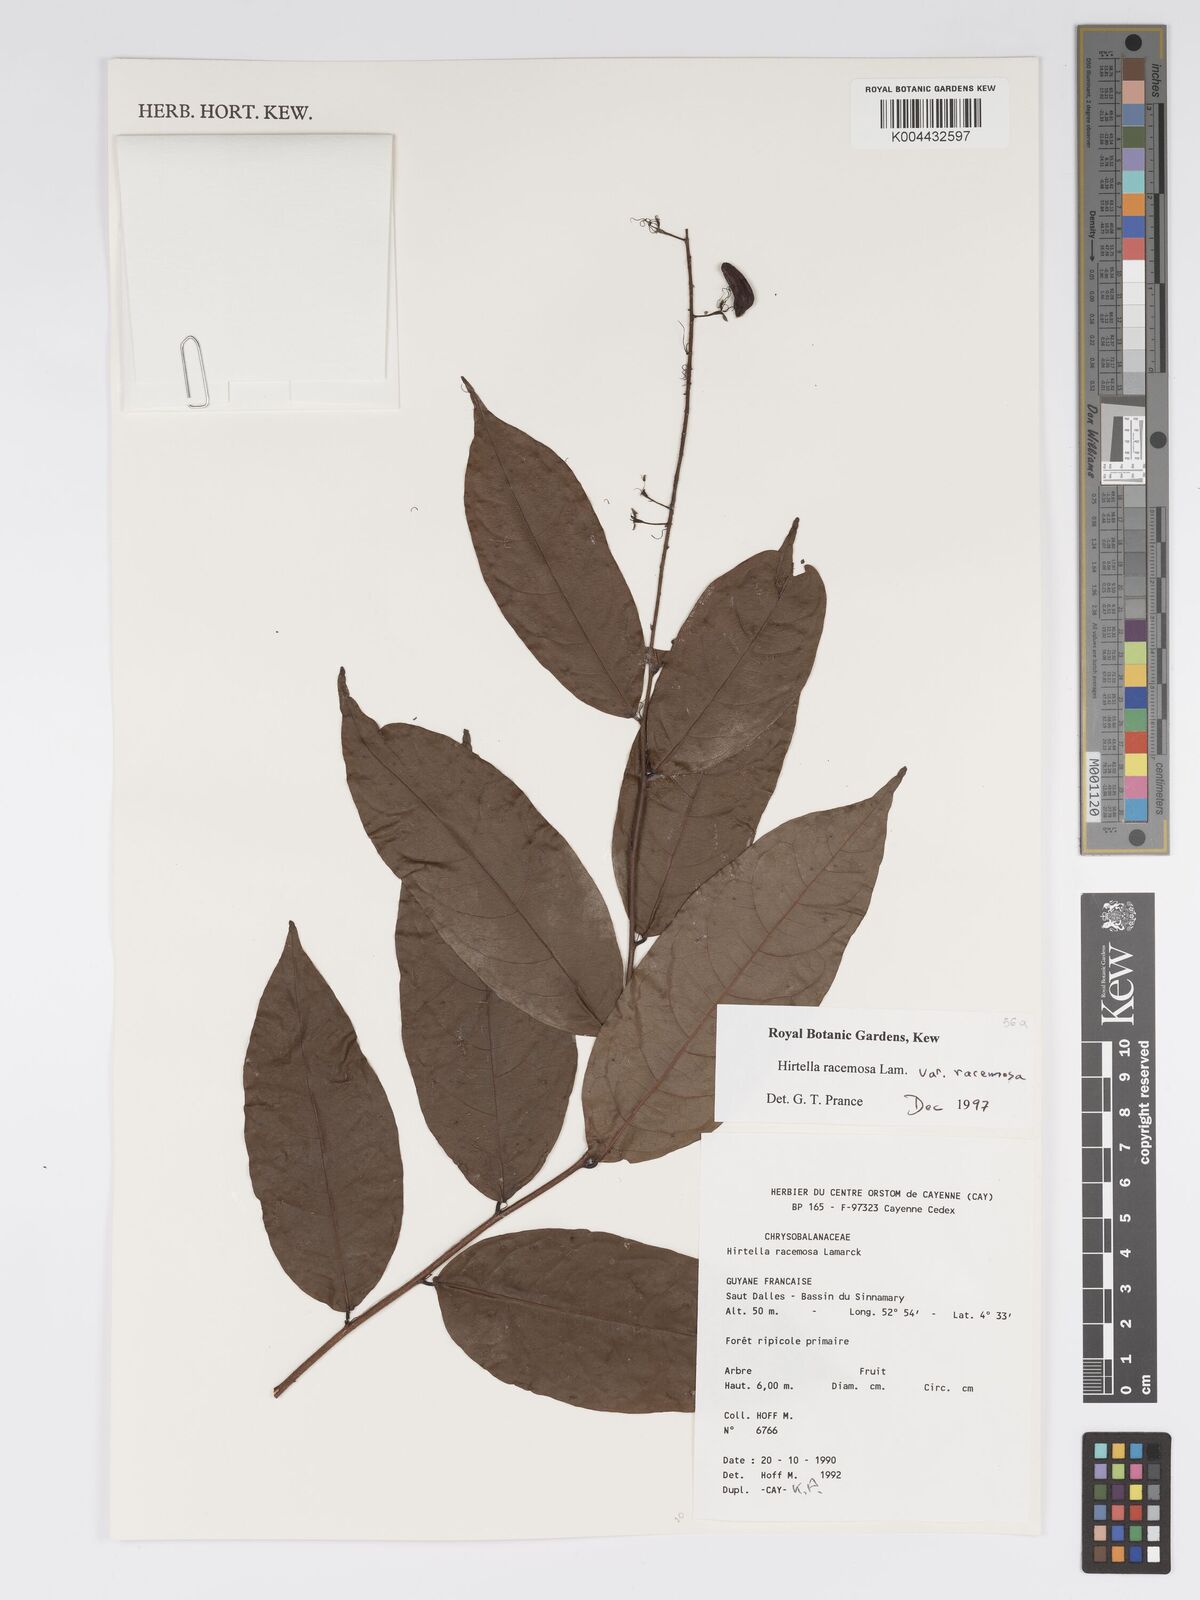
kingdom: Plantae
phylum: Tracheophyta
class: Magnoliopsida
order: Malpighiales
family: Chrysobalanaceae
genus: Hirtella
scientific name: Hirtella racemosa
